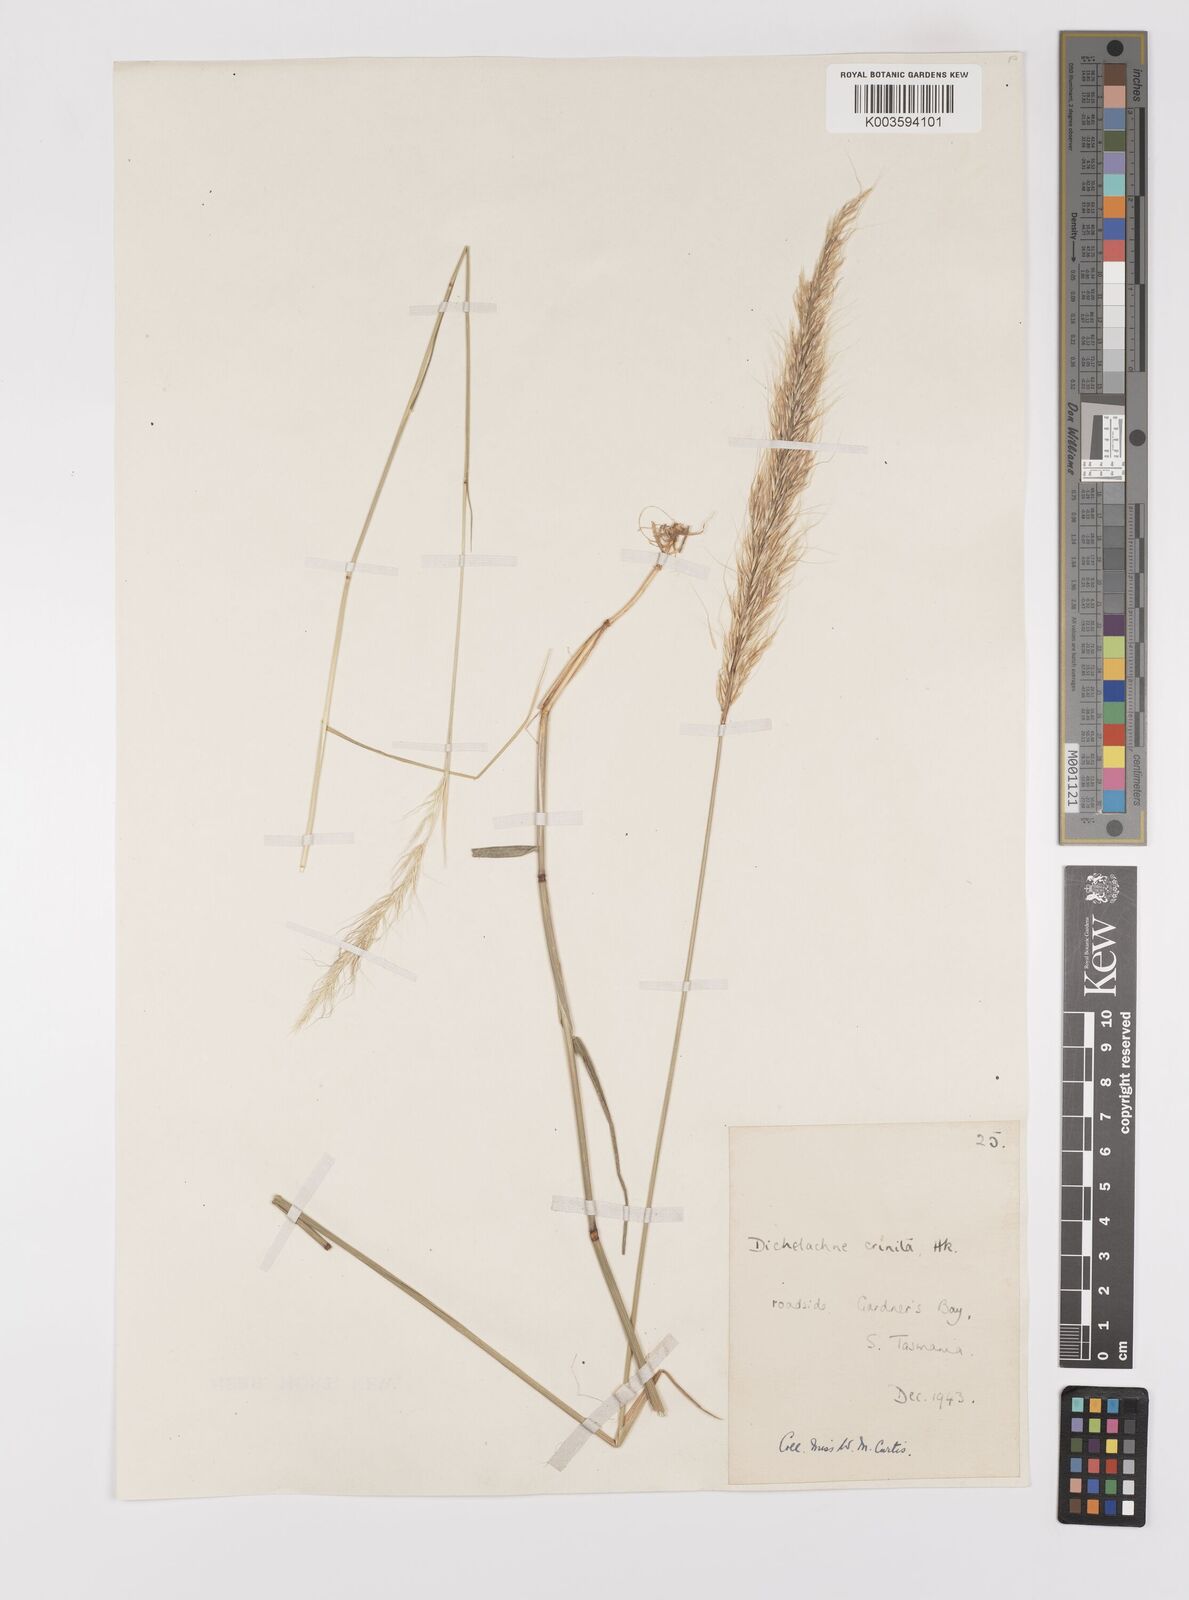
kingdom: Plantae
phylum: Tracheophyta
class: Liliopsida
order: Poales
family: Poaceae
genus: Dichelachne
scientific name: Dichelachne
